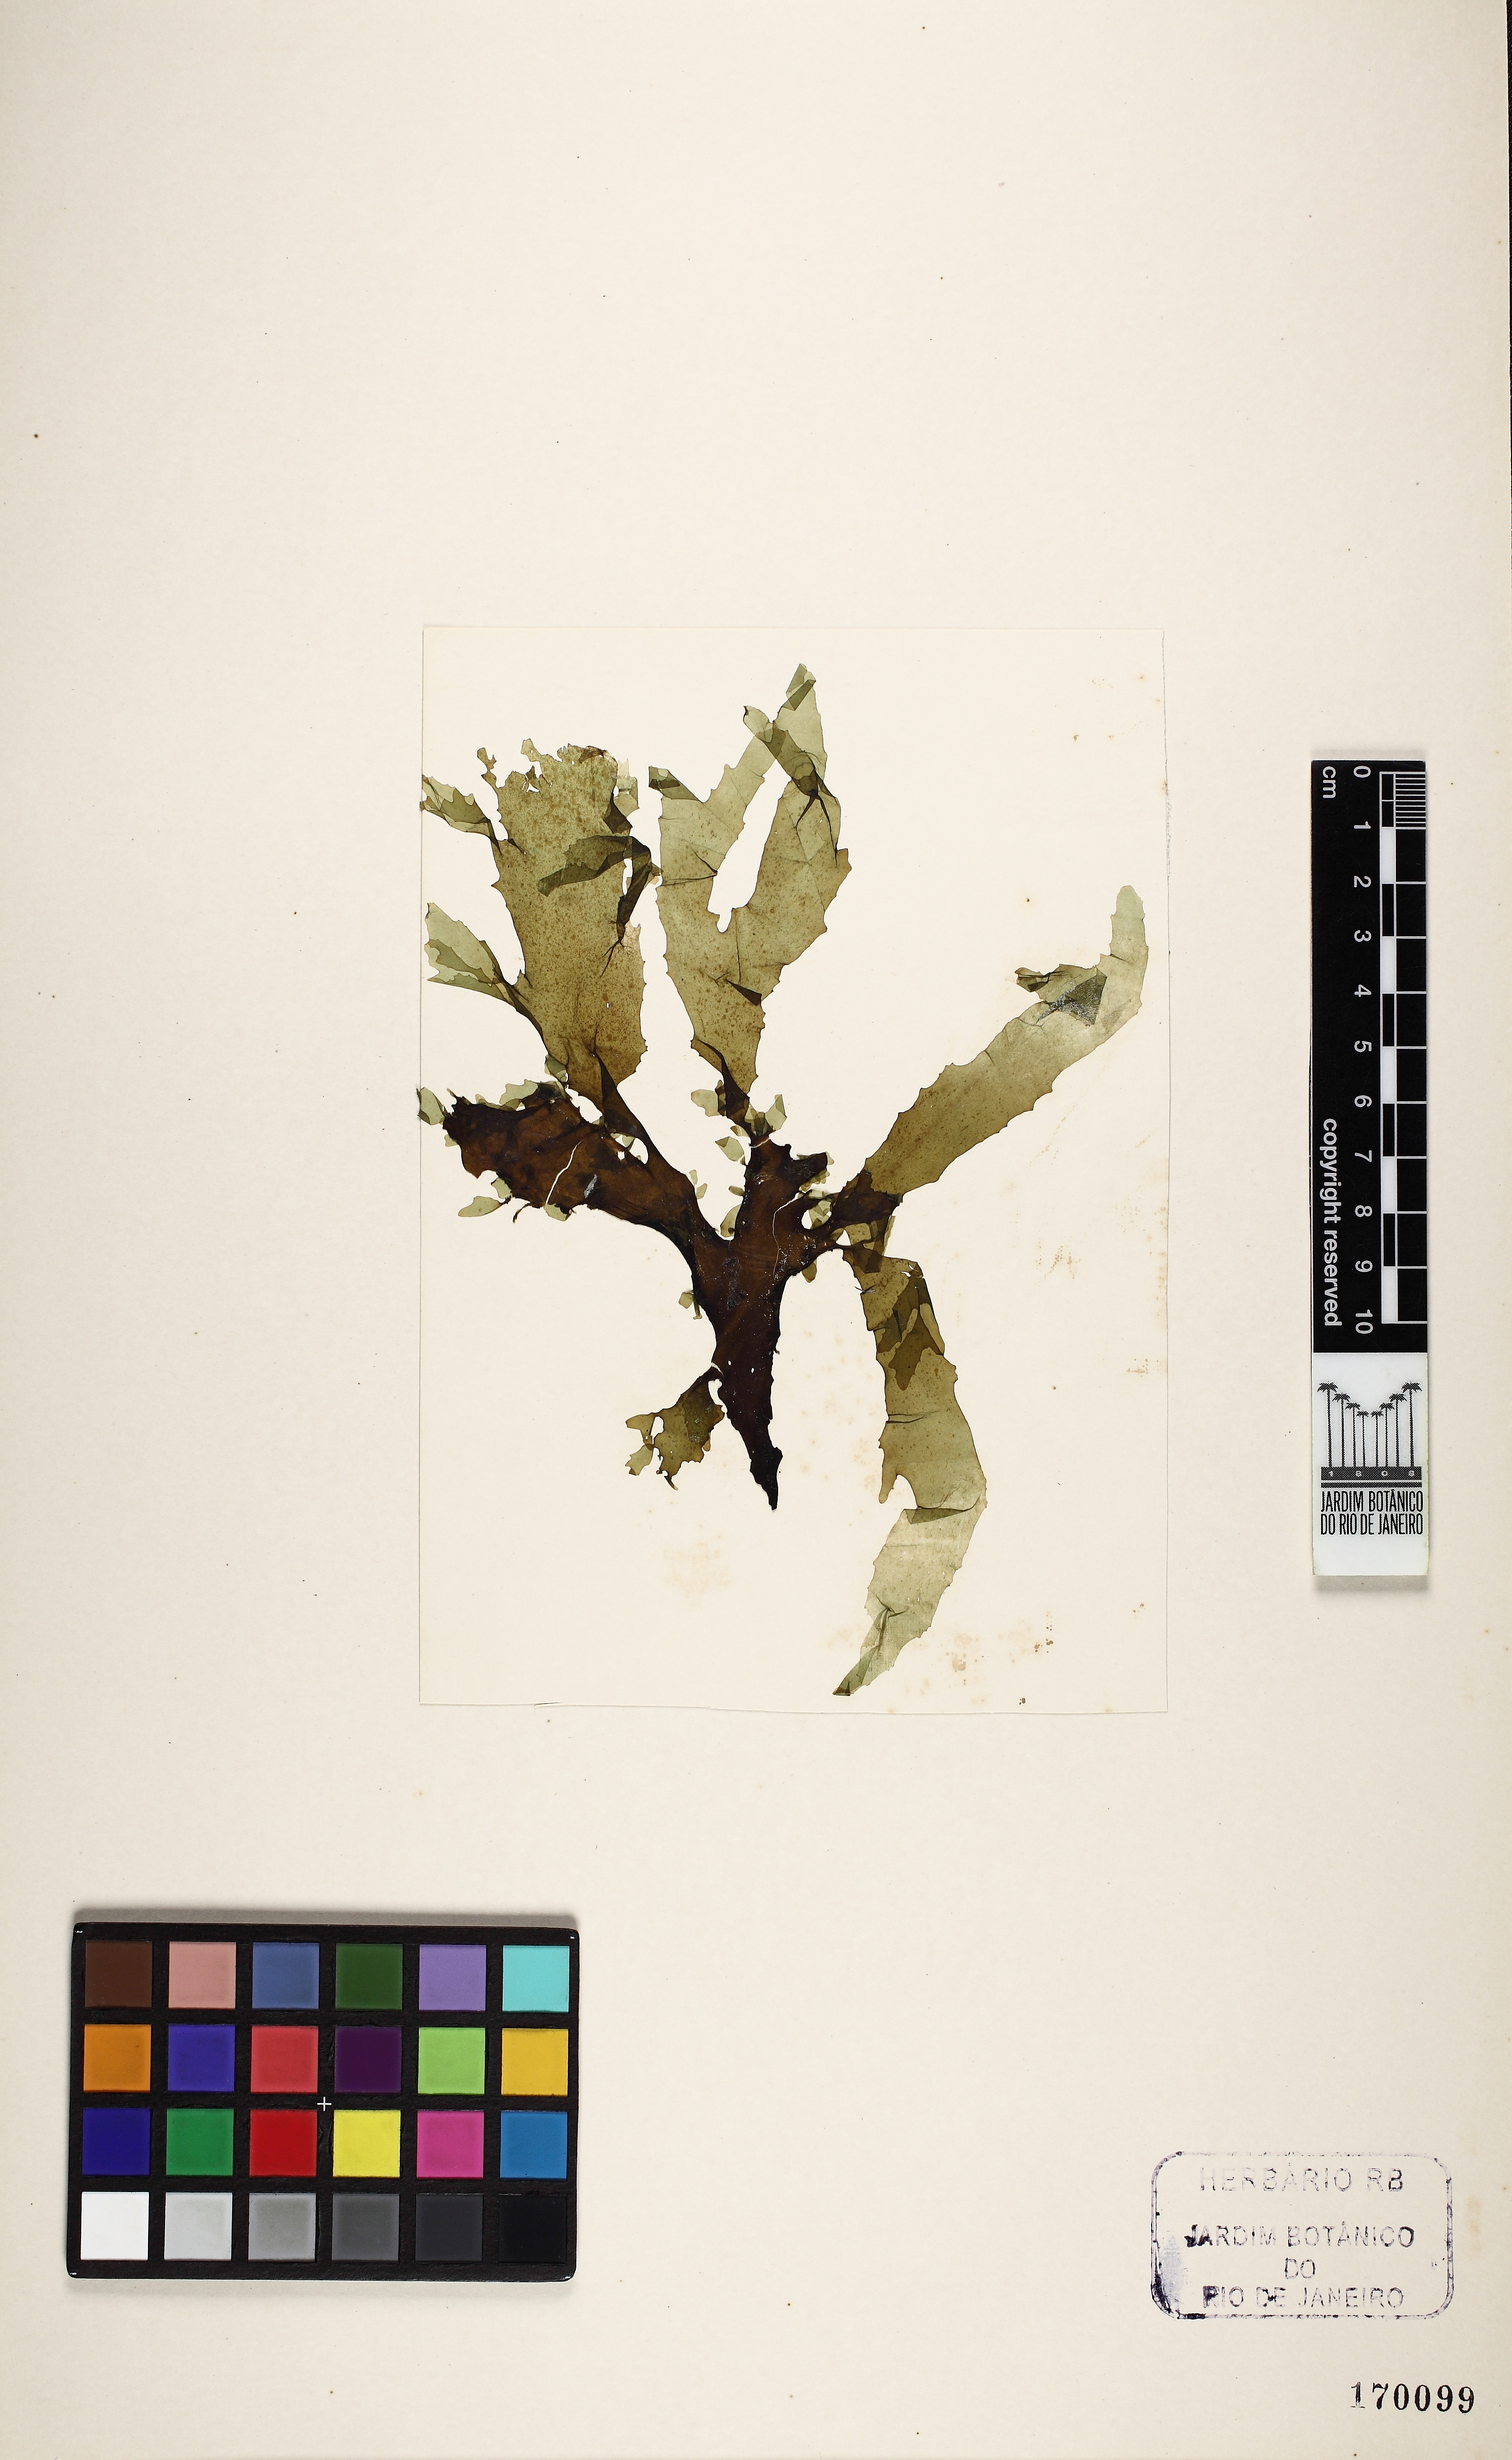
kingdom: Chromista
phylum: Ochrophyta
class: Phaeophyceae
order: Dictyotales
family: Dictyotaceae
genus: Spatoglossum
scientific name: Spatoglossum schroederi
